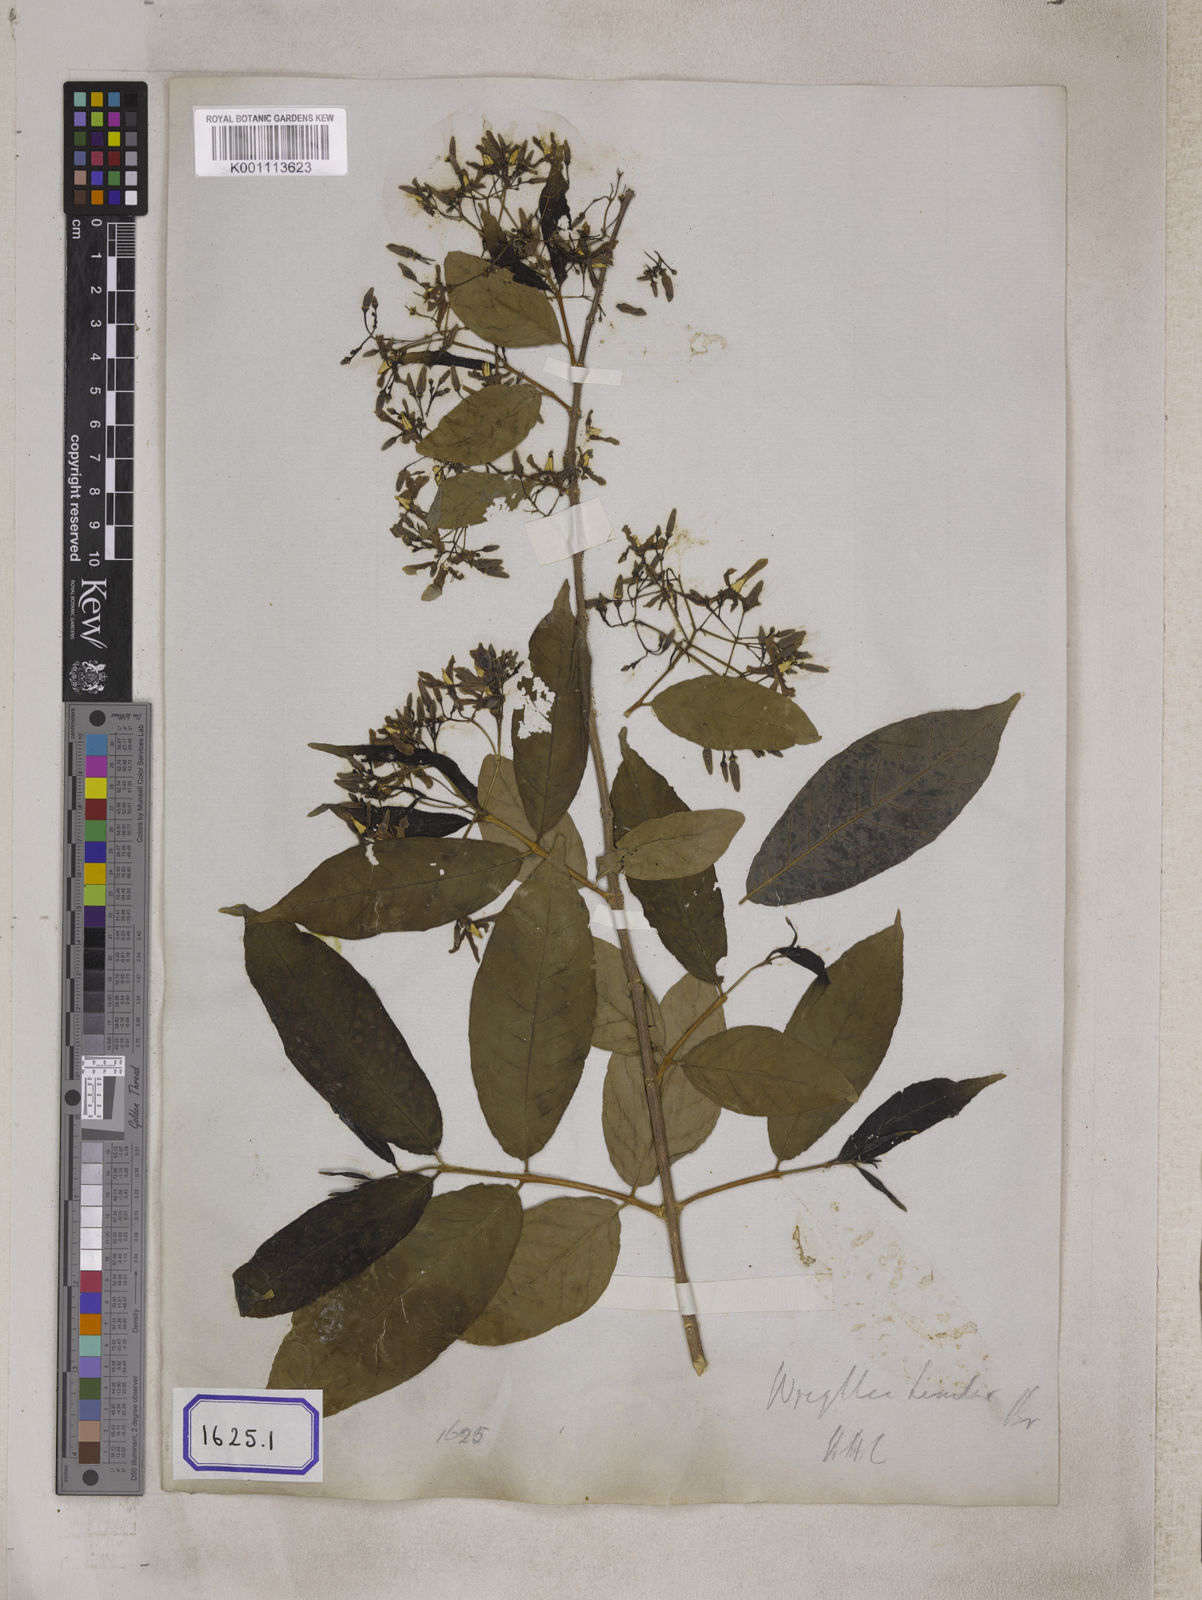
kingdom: Plantae
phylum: Tracheophyta
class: Magnoliopsida
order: Gentianales
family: Apocynaceae
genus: Wrightia
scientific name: Wrightia tinctoria
